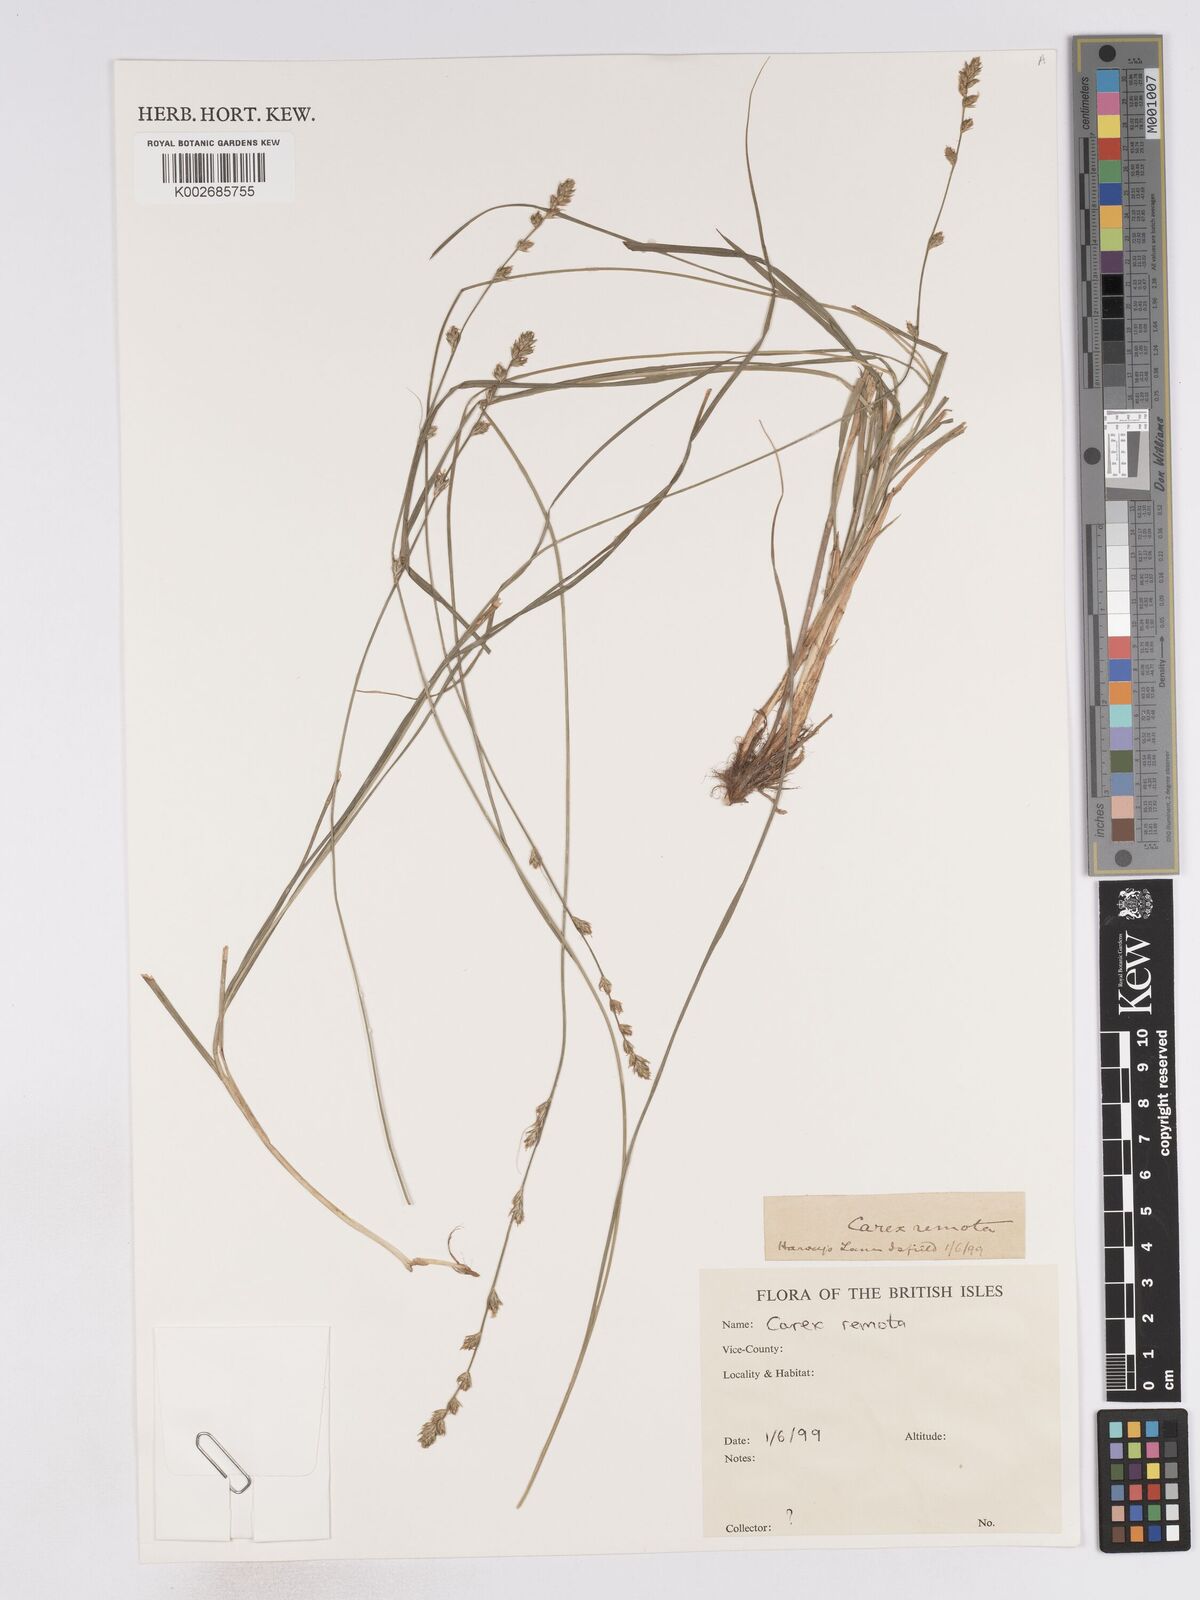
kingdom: Plantae
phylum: Tracheophyta
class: Liliopsida
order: Poales
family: Cyperaceae
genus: Carex
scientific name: Carex remota
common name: Remote sedge
